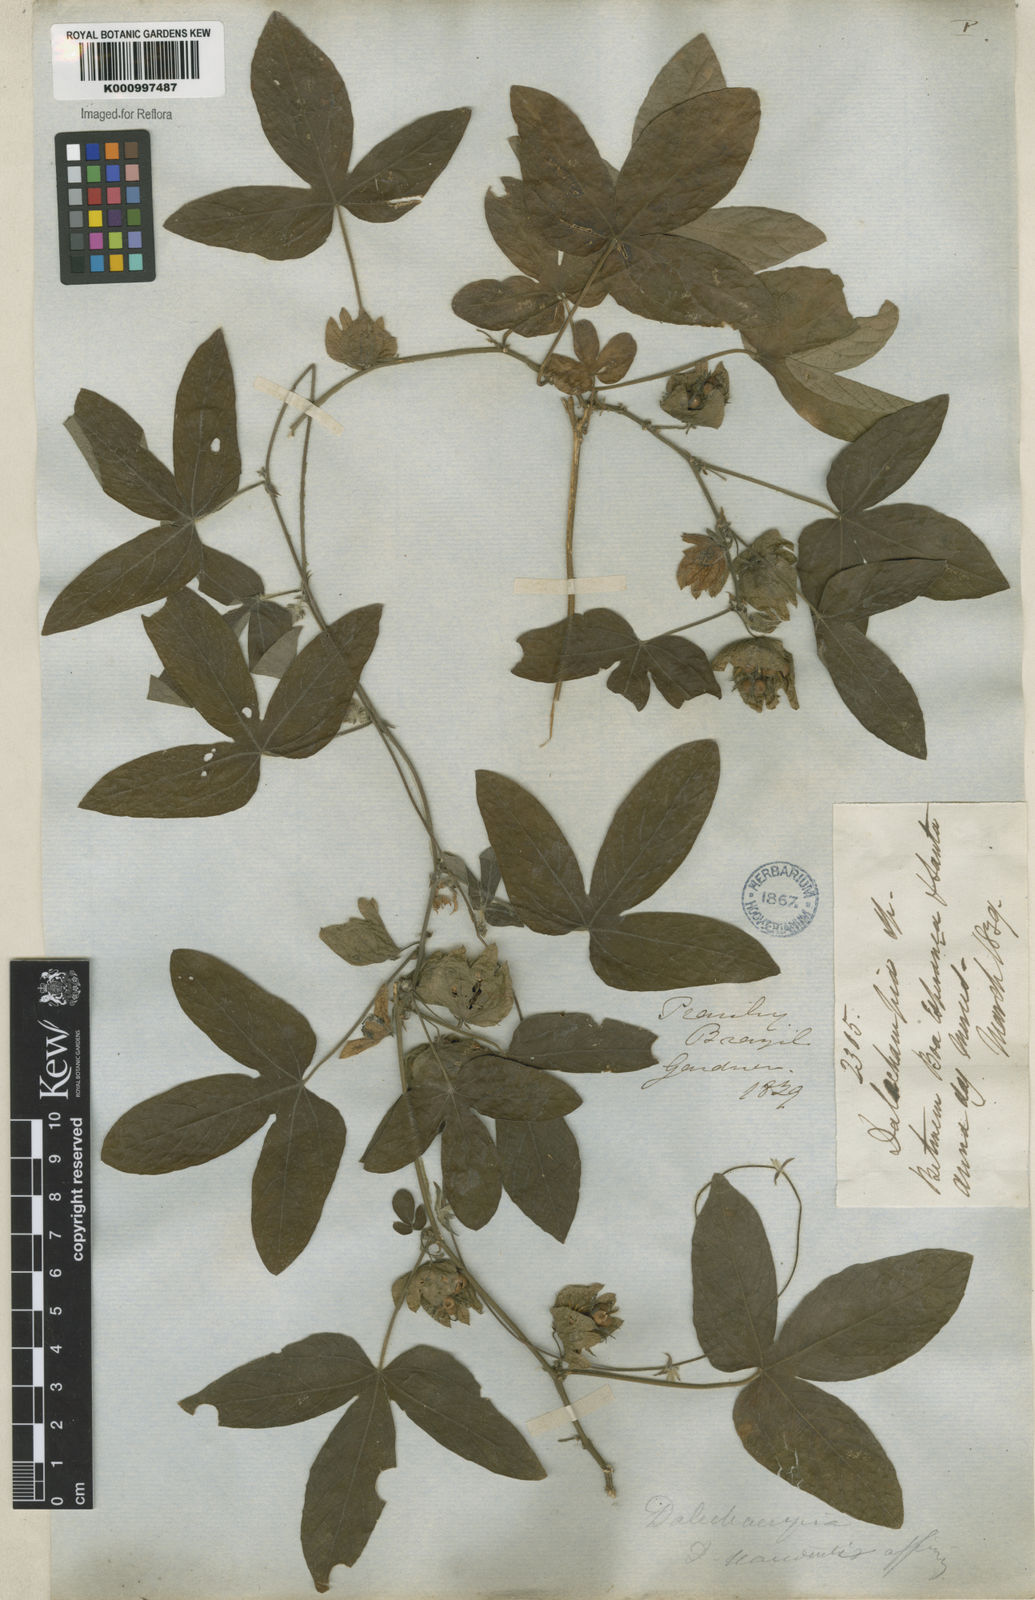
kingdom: Plantae
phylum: Tracheophyta
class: Magnoliopsida
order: Malpighiales
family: Euphorbiaceae
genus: Dalechampia
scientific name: Dalechampia brasiliensis
